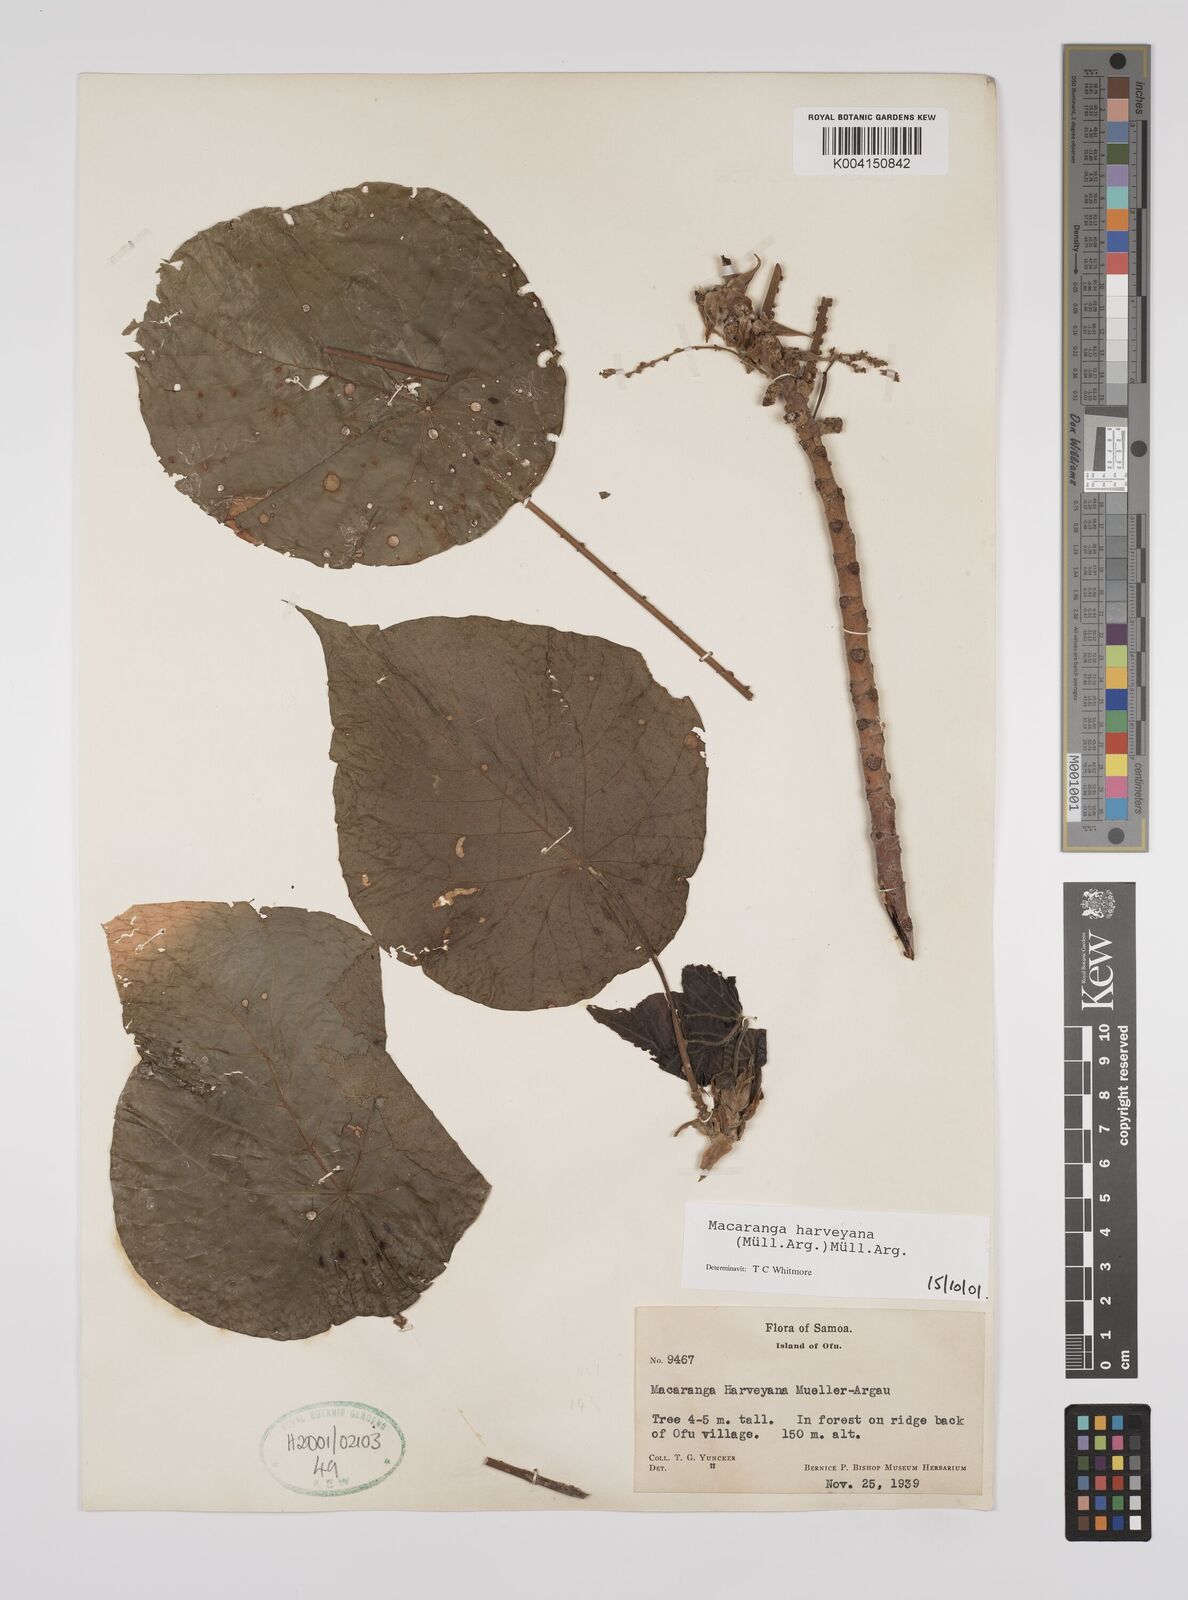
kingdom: Plantae
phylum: Tracheophyta
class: Magnoliopsida
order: Malpighiales
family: Euphorbiaceae
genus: Macaranga
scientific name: Macaranga harveyana
